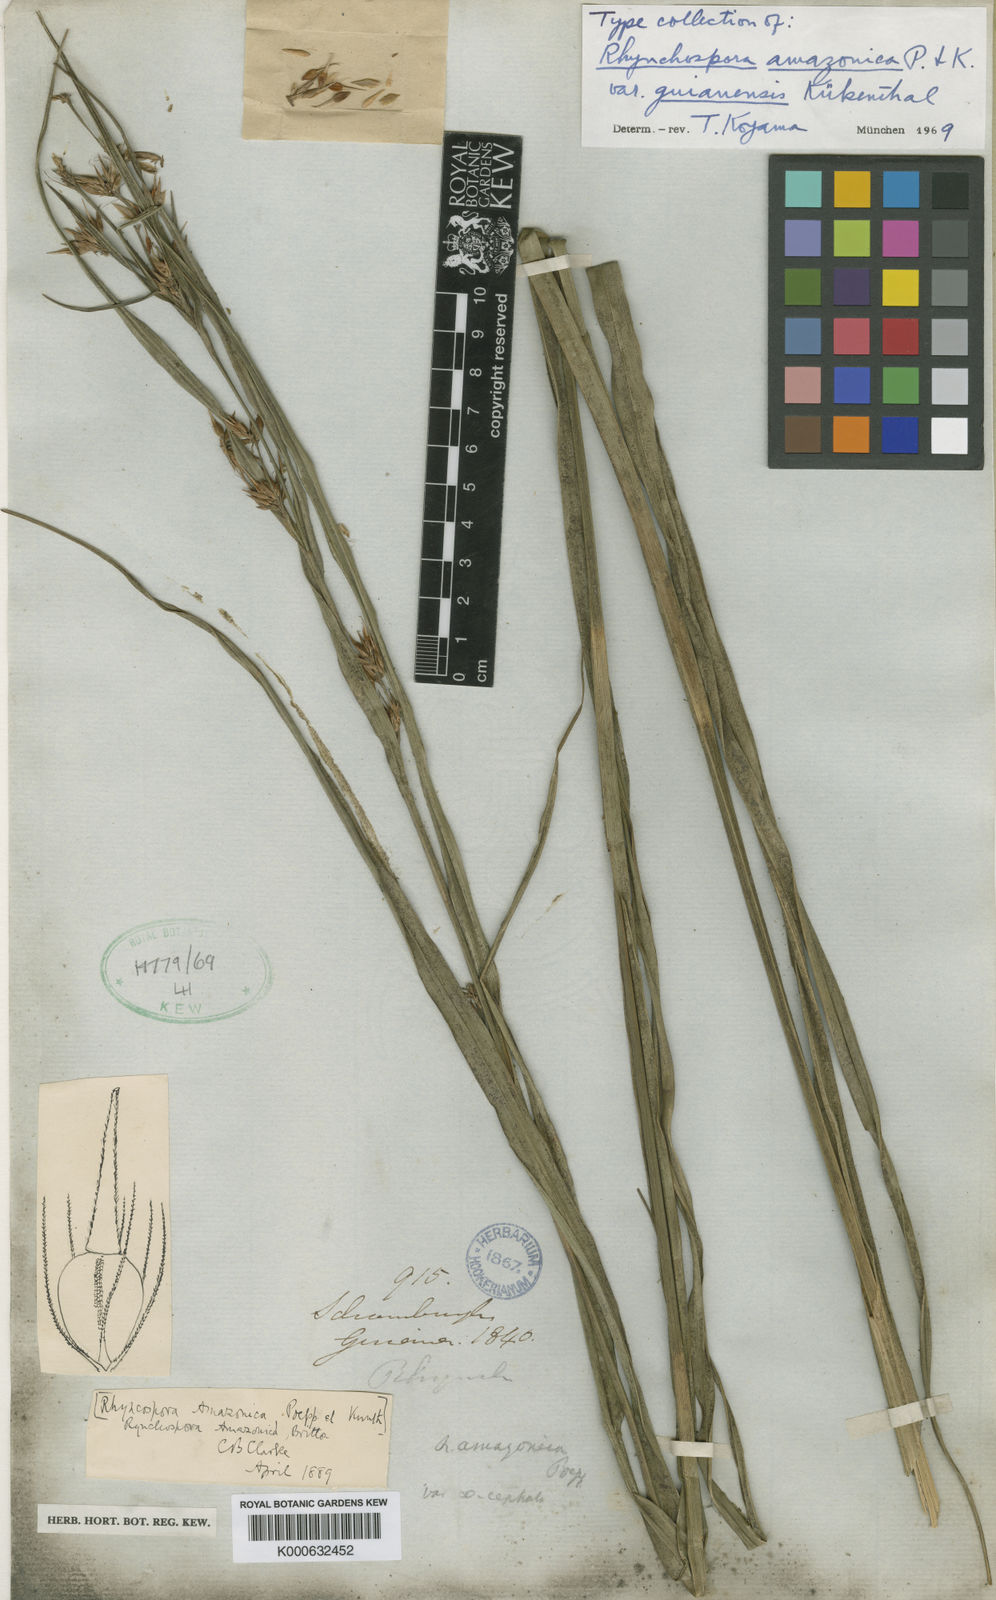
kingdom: Plantae
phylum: Tracheophyta
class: Liliopsida
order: Poales
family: Cyperaceae
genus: Rhynchospora
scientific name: Rhynchospora amazonica
